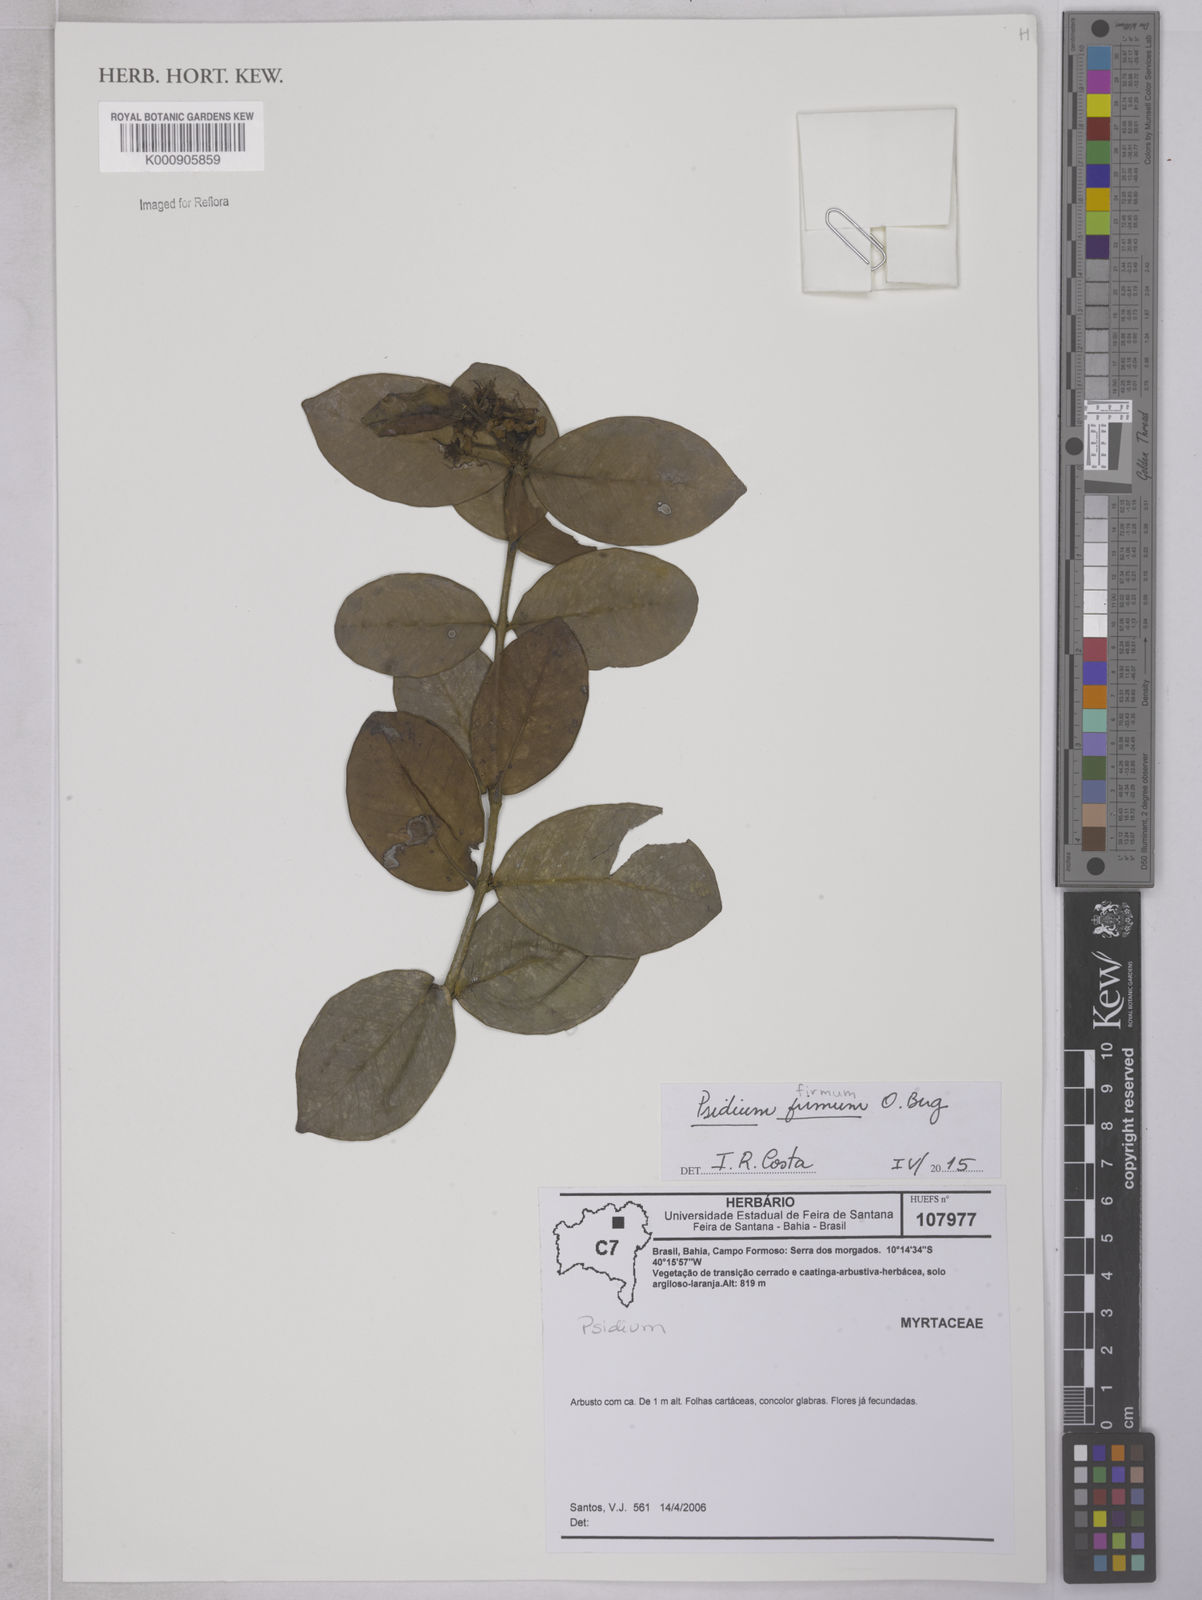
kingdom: Plantae
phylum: Tracheophyta
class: Magnoliopsida
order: Myrtales
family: Myrtaceae
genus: Psidium
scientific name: Psidium firmum
